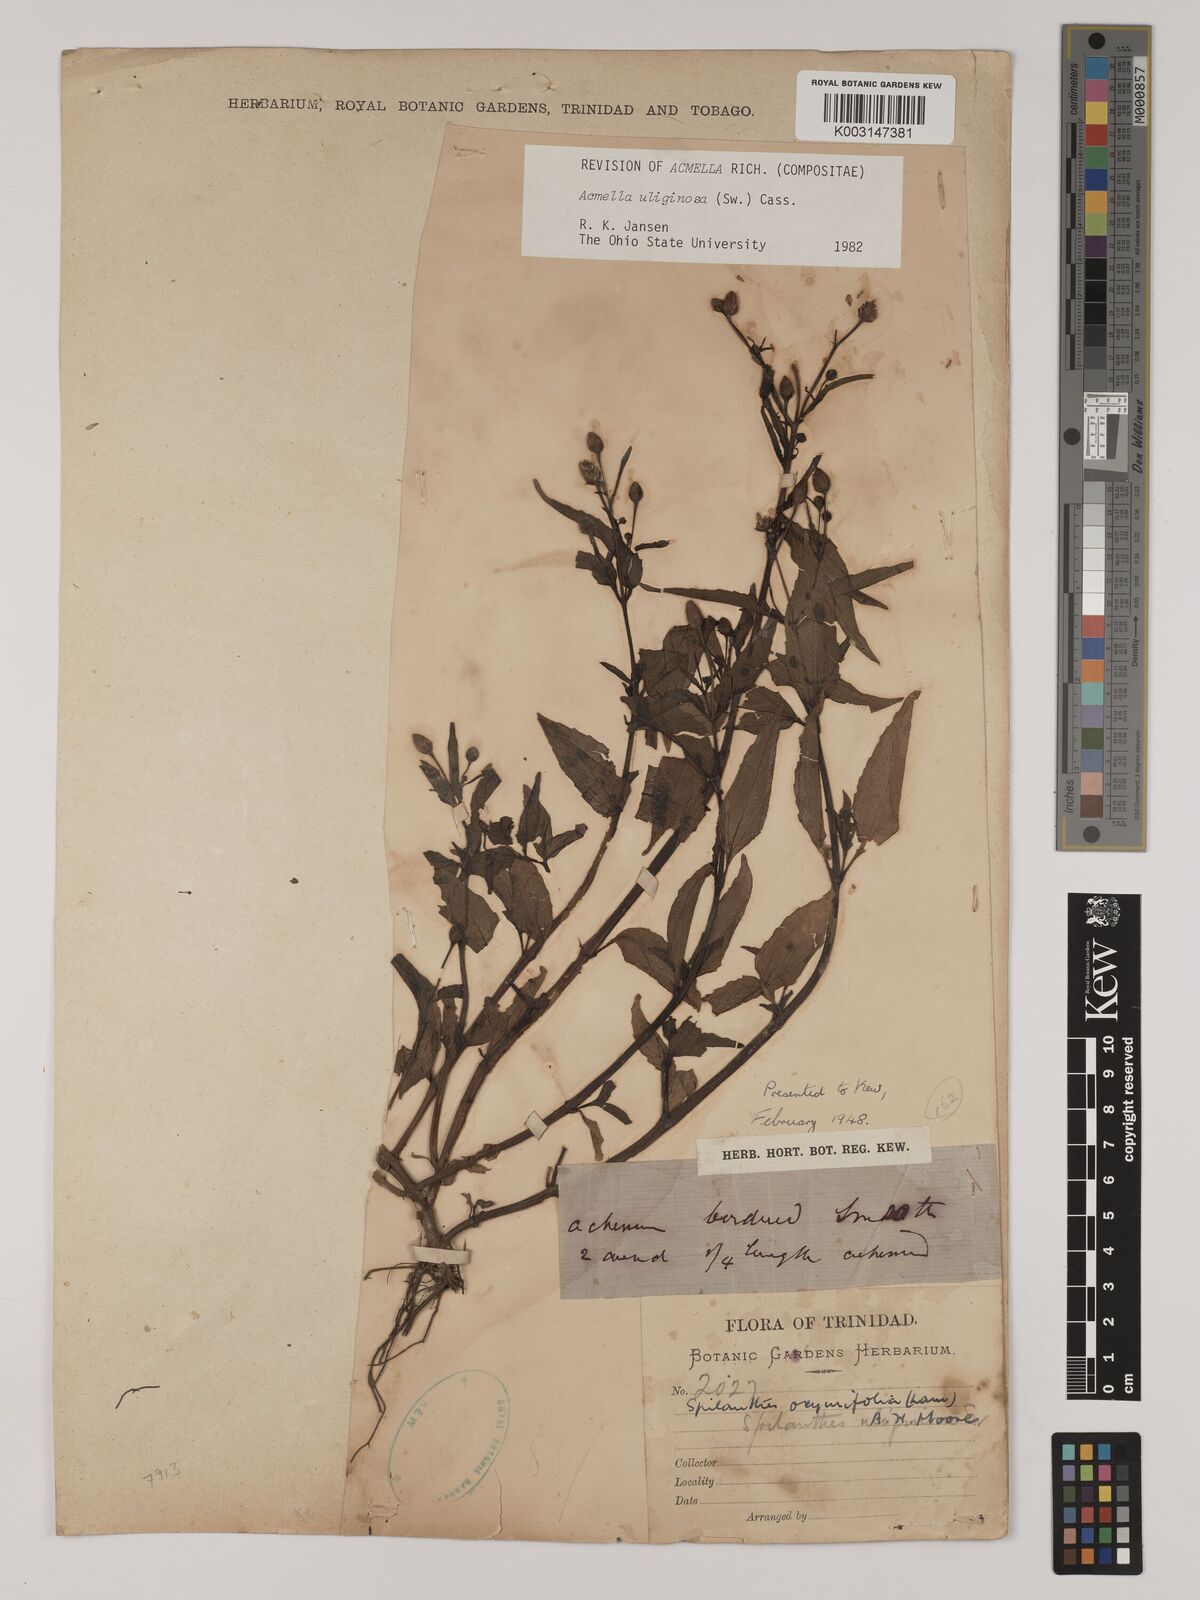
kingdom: Plantae
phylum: Tracheophyta
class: Magnoliopsida
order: Asterales
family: Asteraceae
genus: Acmella
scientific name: Acmella uliginosa
